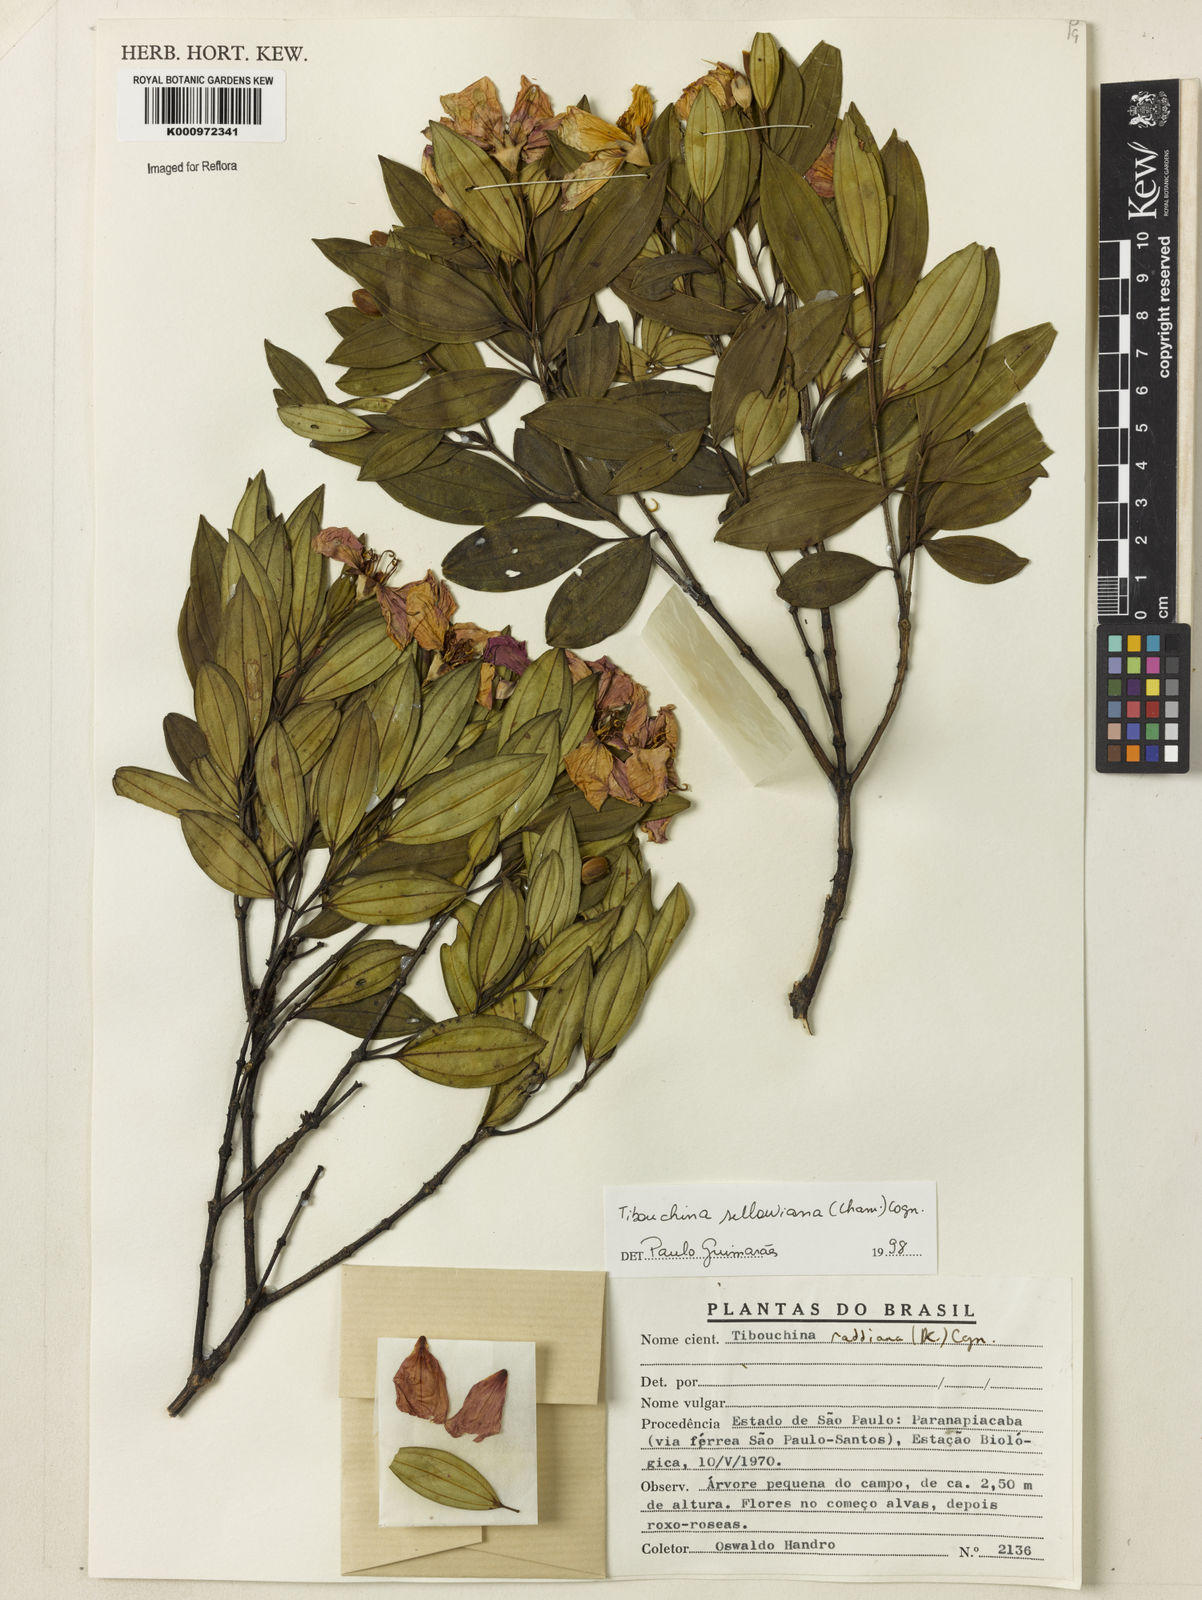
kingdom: Plantae
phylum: Tracheophyta
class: Magnoliopsida
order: Myrtales
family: Melastomataceae
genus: Pleroma
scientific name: Pleroma sellowianum
